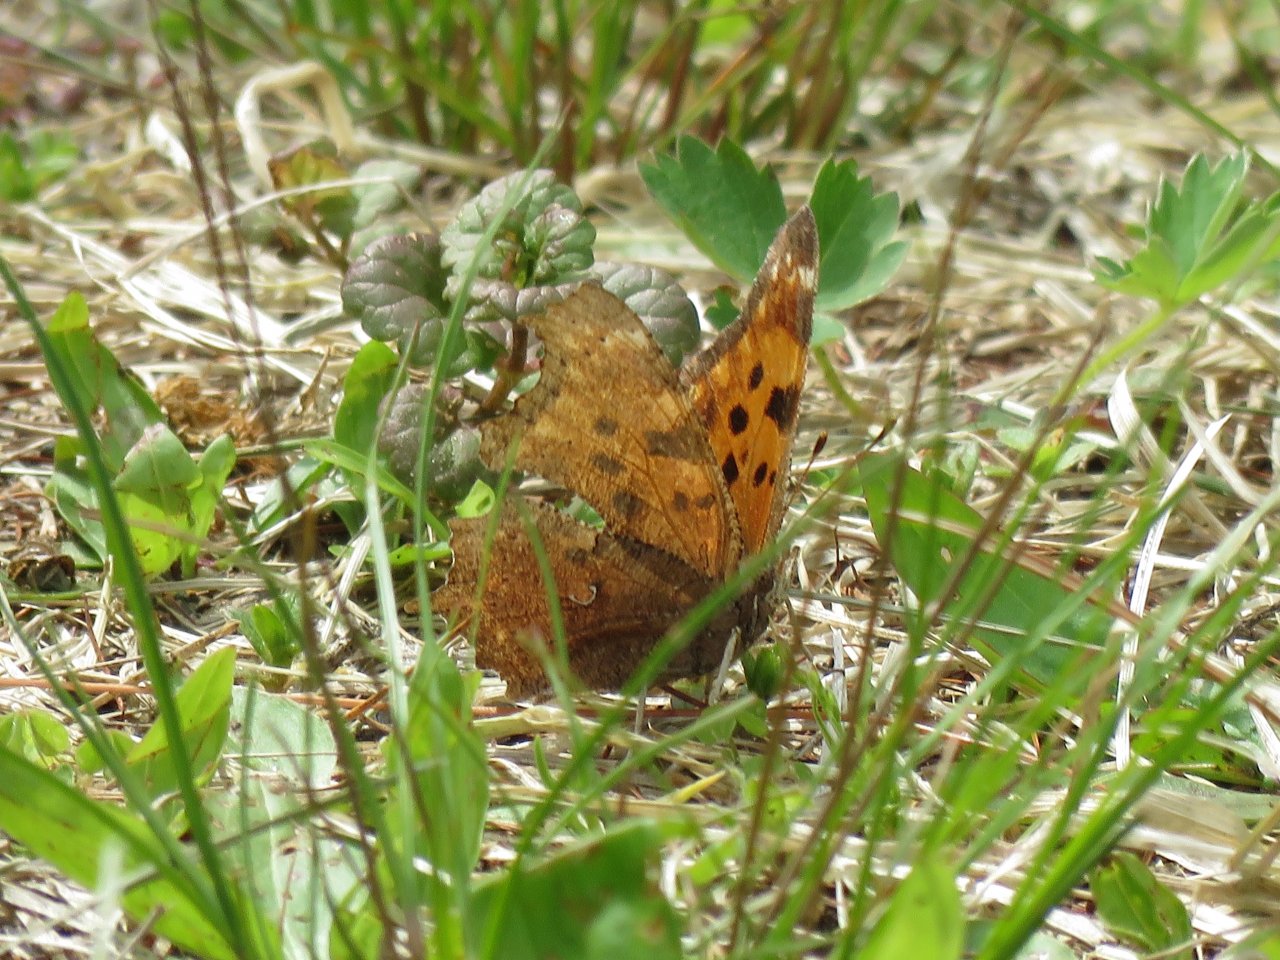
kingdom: Animalia
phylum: Arthropoda
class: Insecta
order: Lepidoptera
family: Nymphalidae
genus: Polygonia
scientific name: Polygonia comma
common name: Eastern Comma
